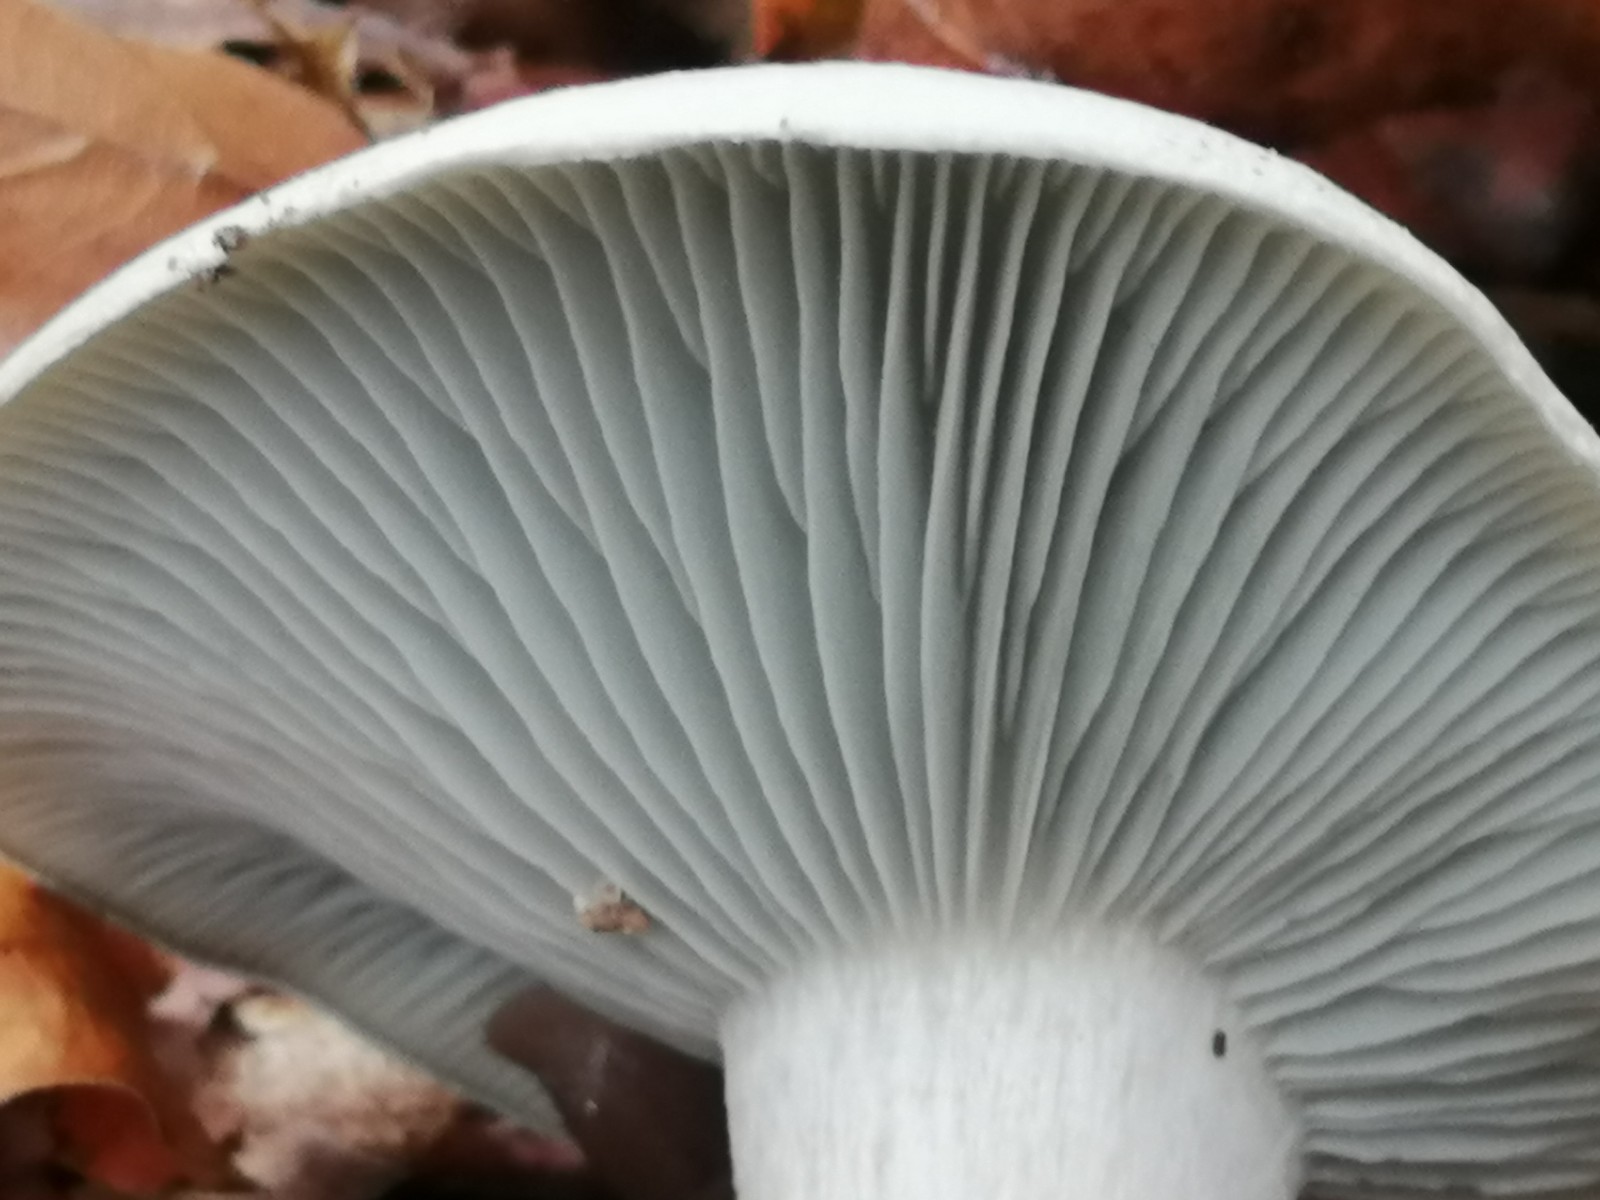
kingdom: Fungi
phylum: Basidiomycota
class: Agaricomycetes
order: Agaricales
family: Tricholomataceae
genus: Clitocybe
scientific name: Clitocybe odora
